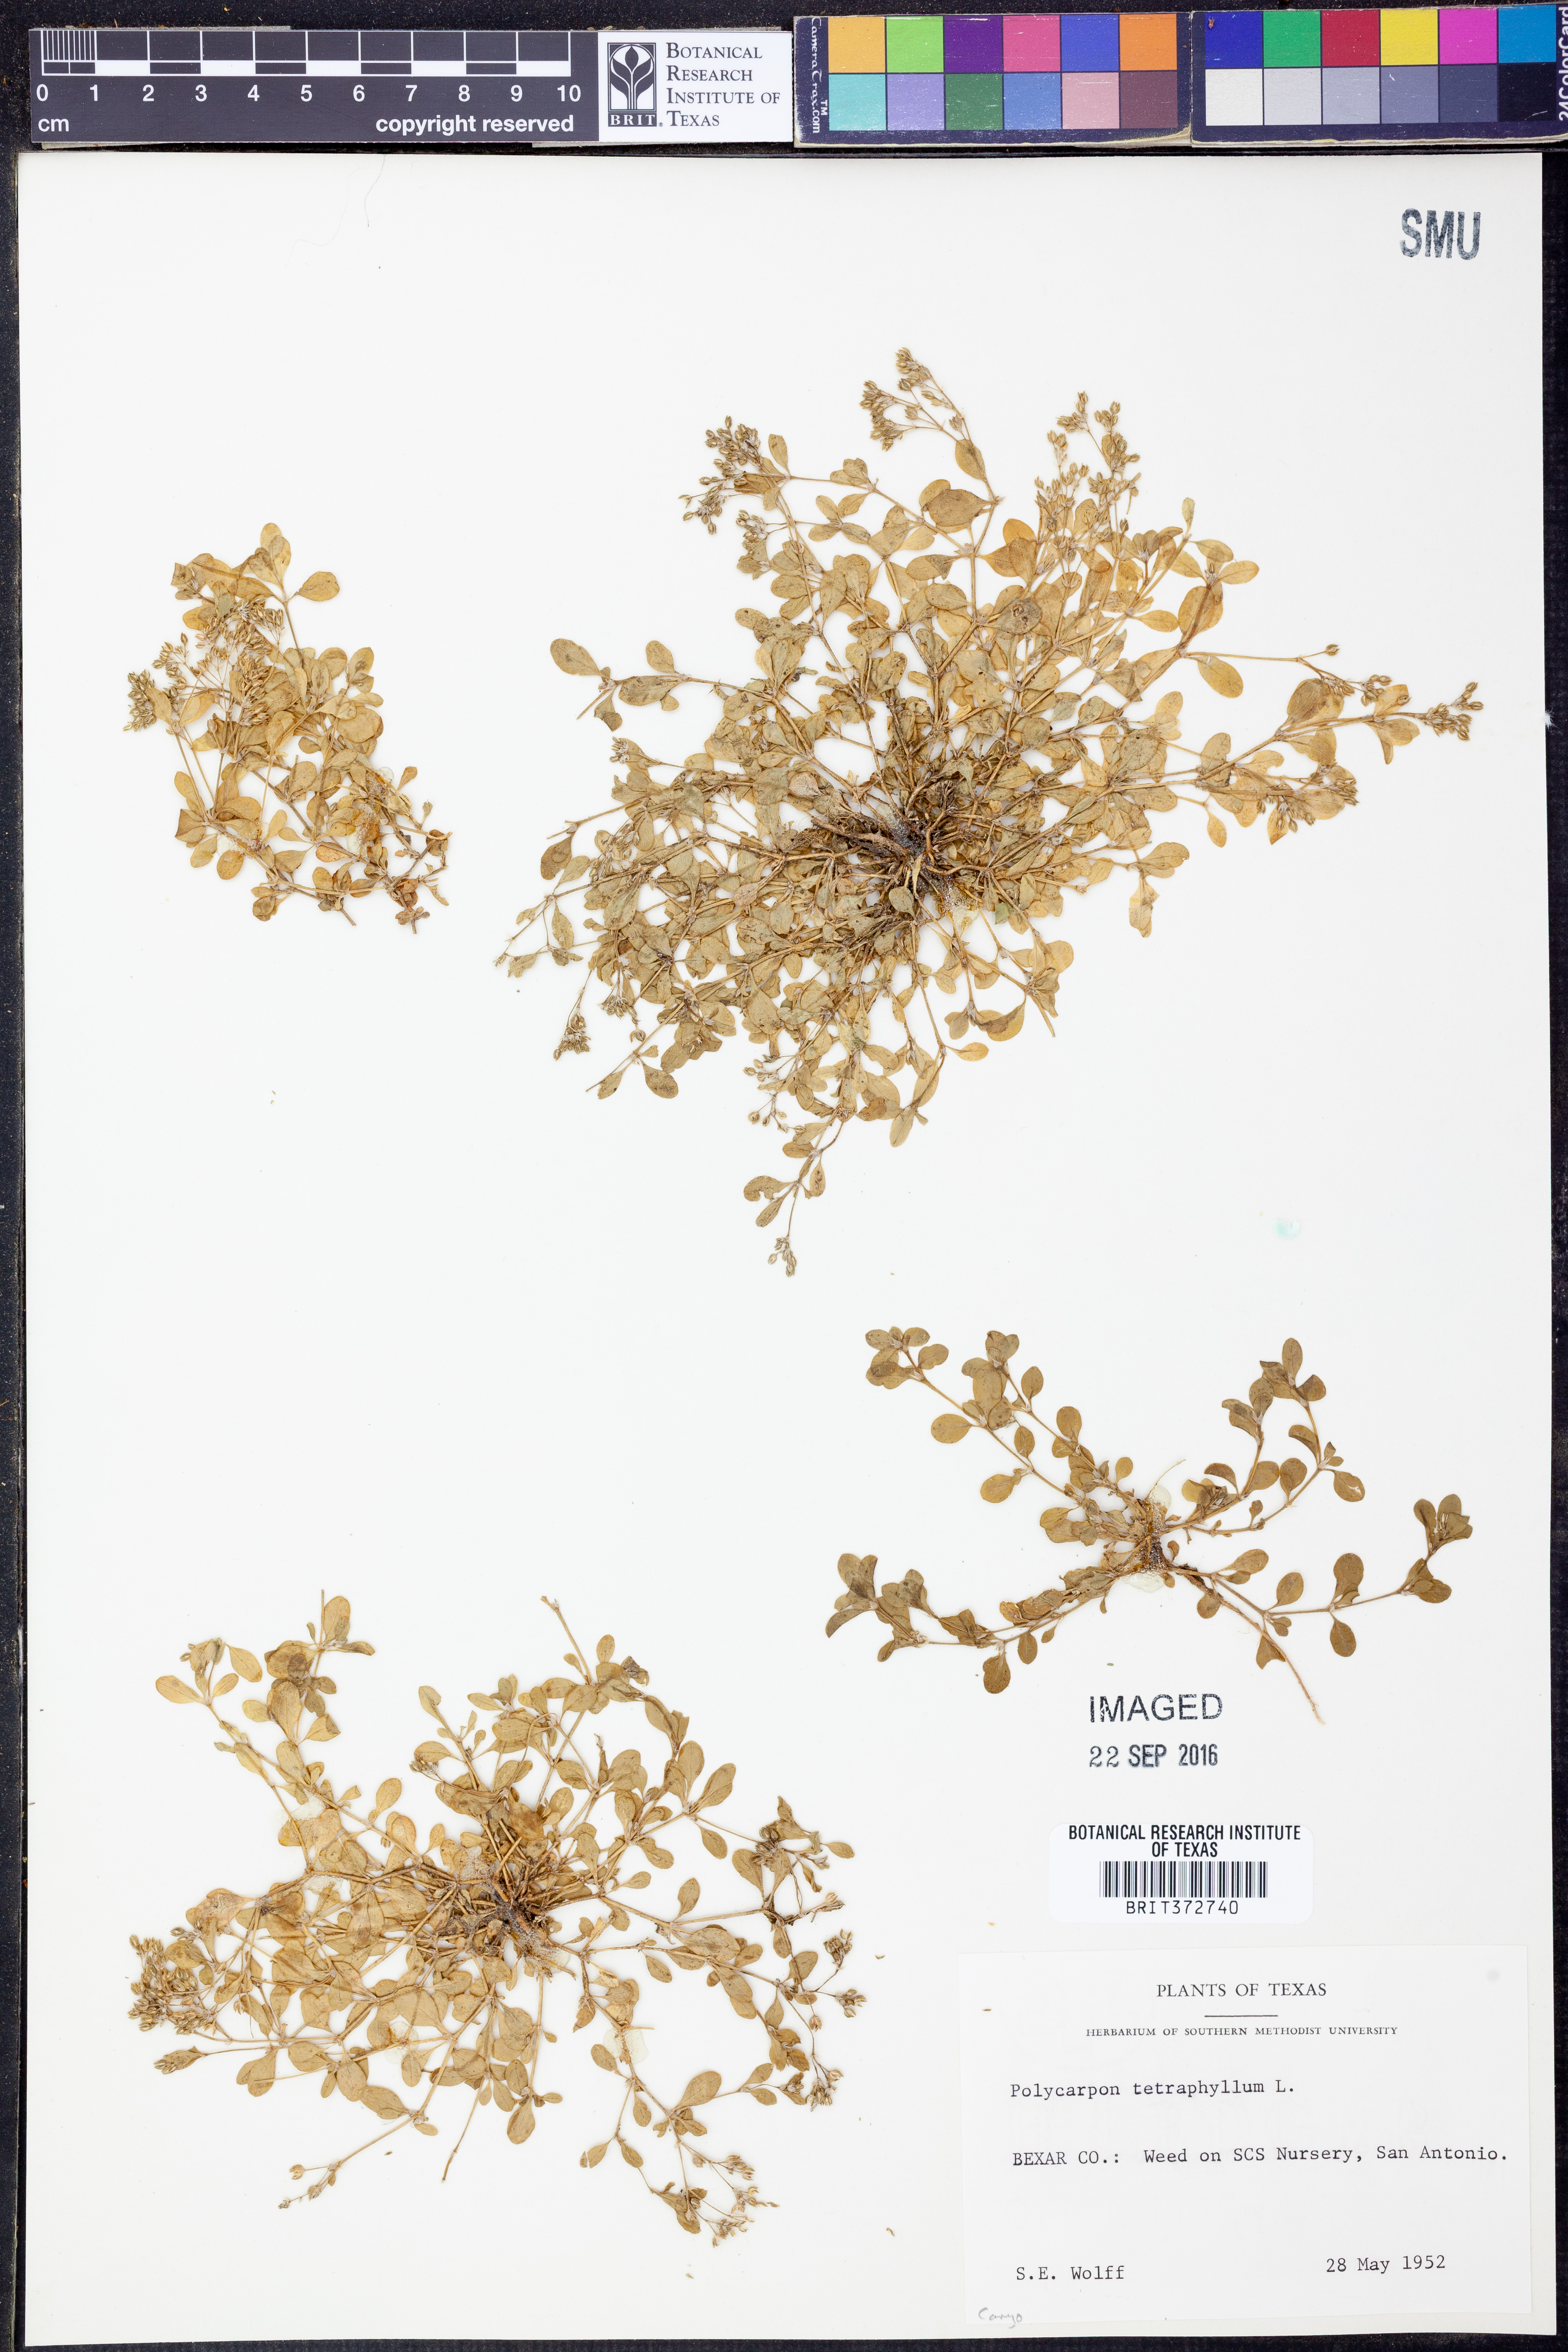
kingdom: Plantae
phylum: Tracheophyta
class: Magnoliopsida
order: Caryophyllales
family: Caryophyllaceae
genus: Polycarpon
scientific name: Polycarpon tetraphyllum
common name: Four-leaved all-seed
